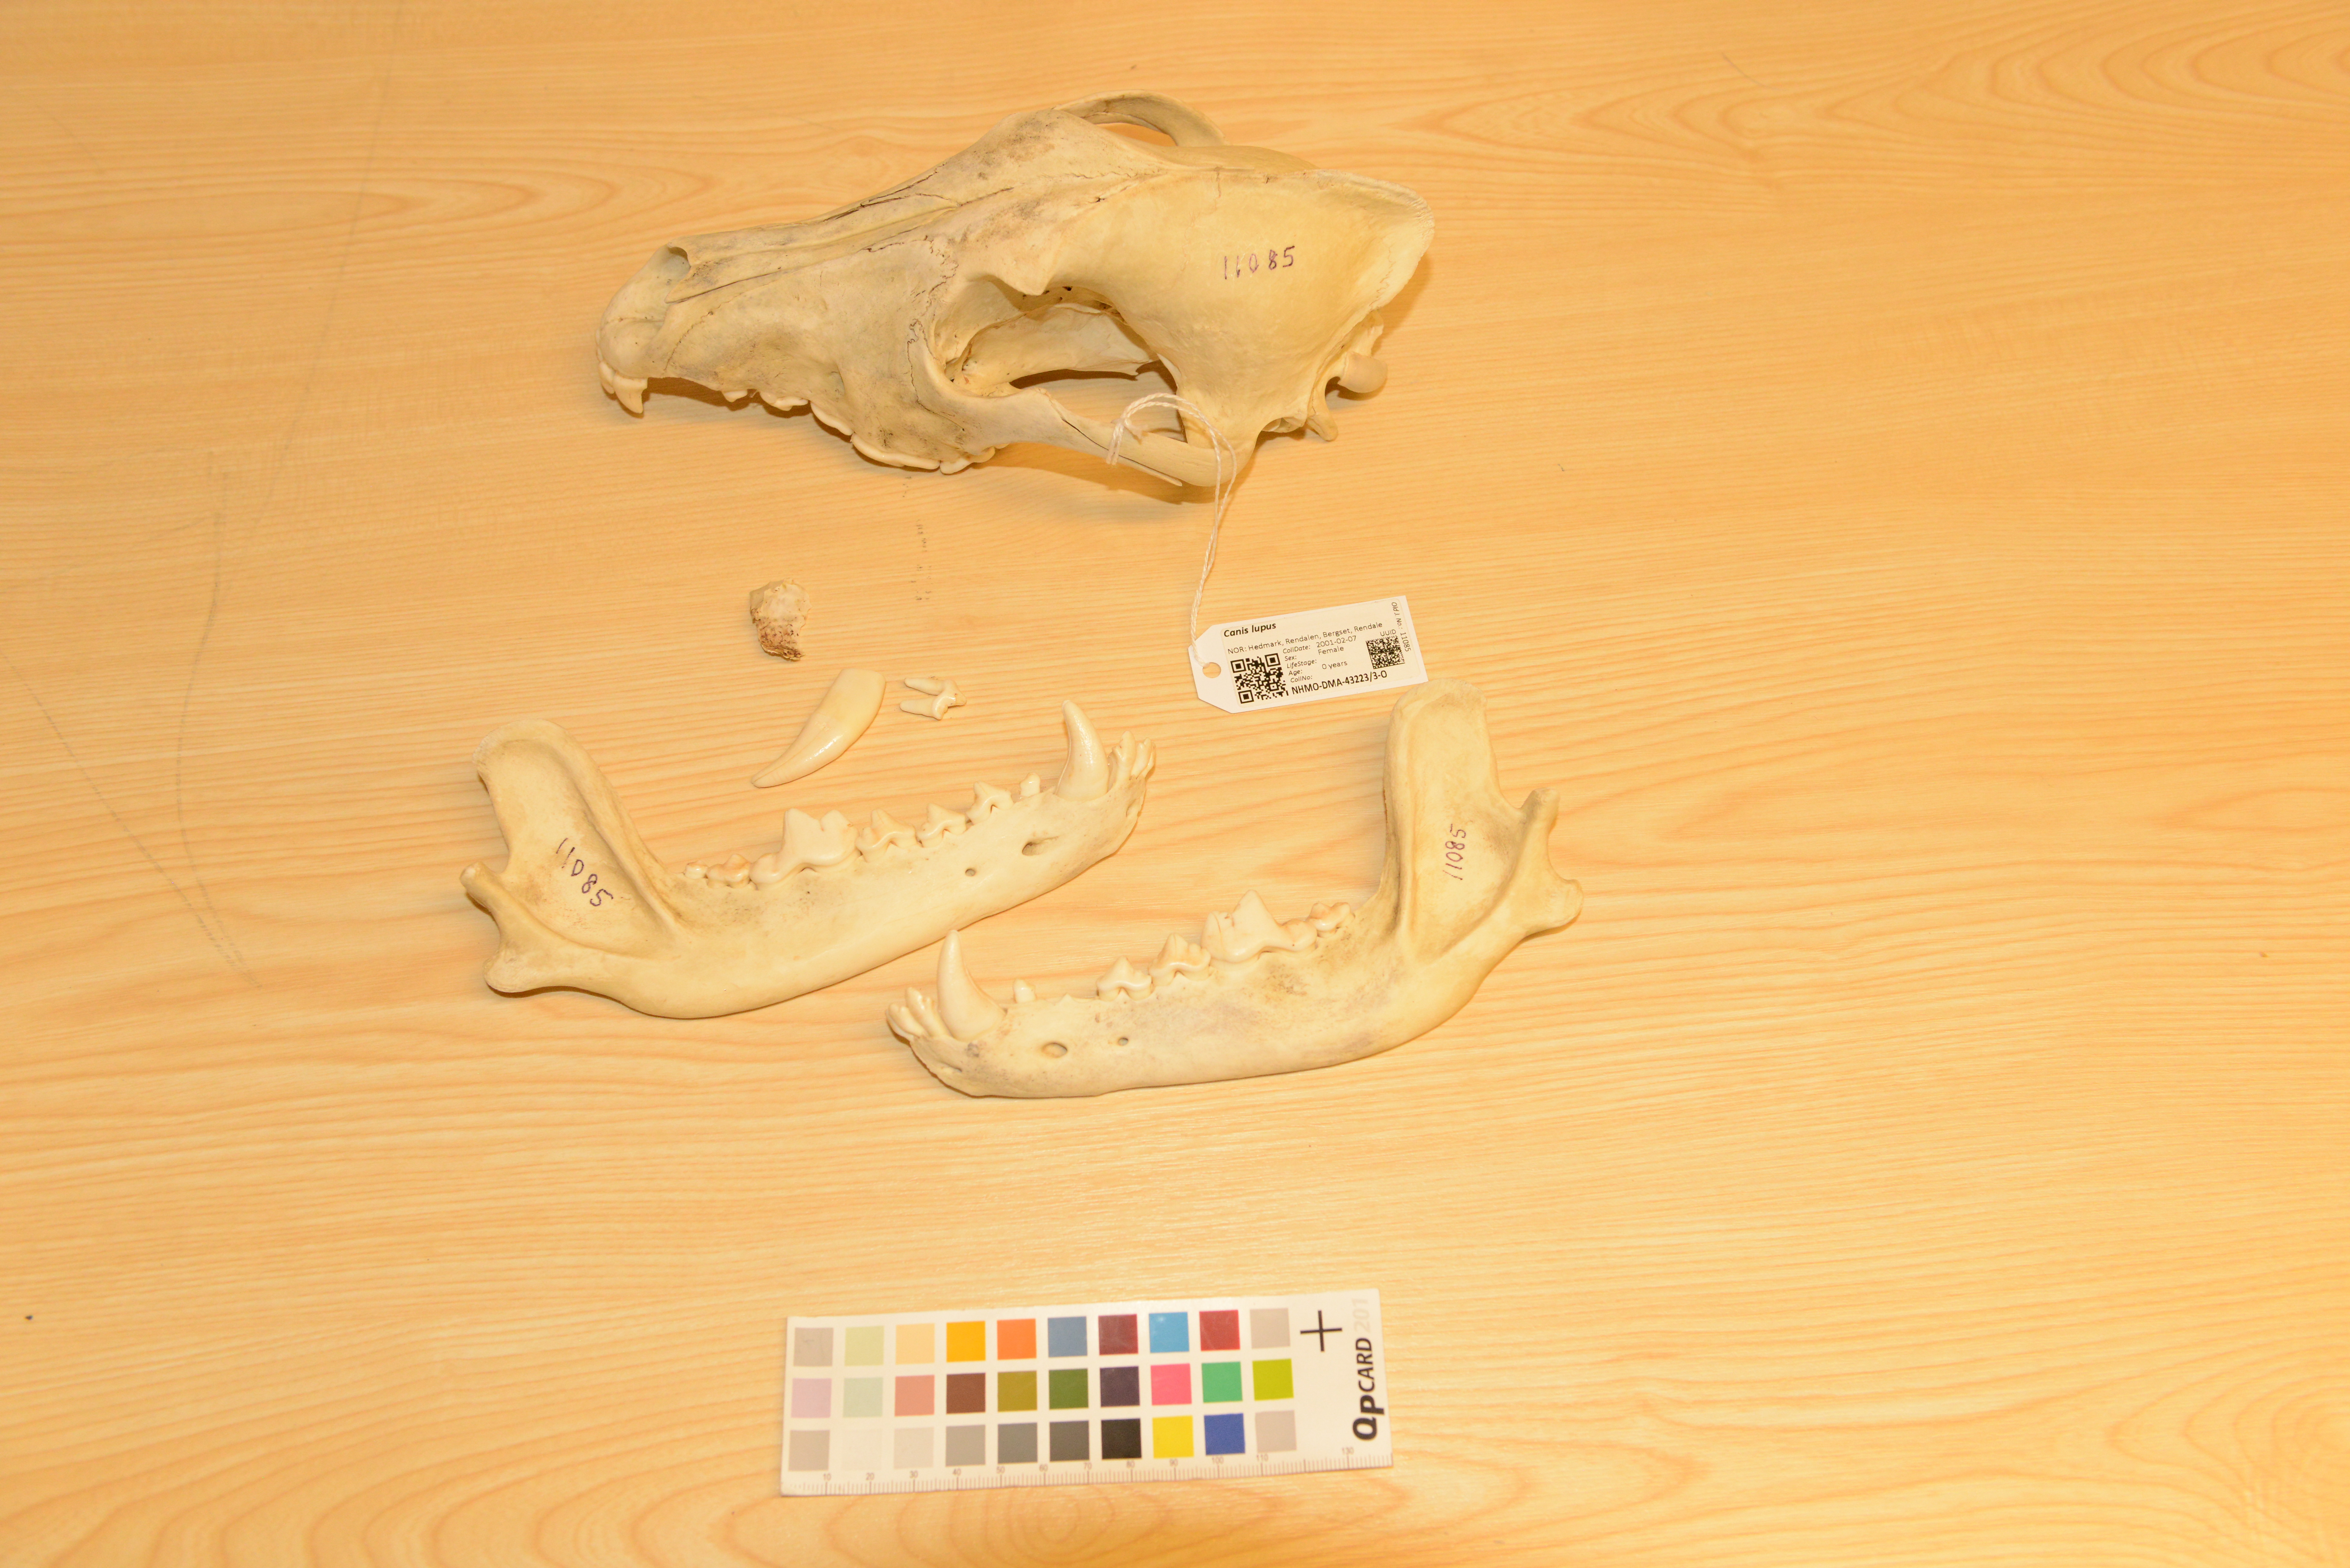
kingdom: Animalia
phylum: Chordata
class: Mammalia
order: Carnivora
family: Canidae
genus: Canis
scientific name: Canis lupus
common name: Gray wolf
